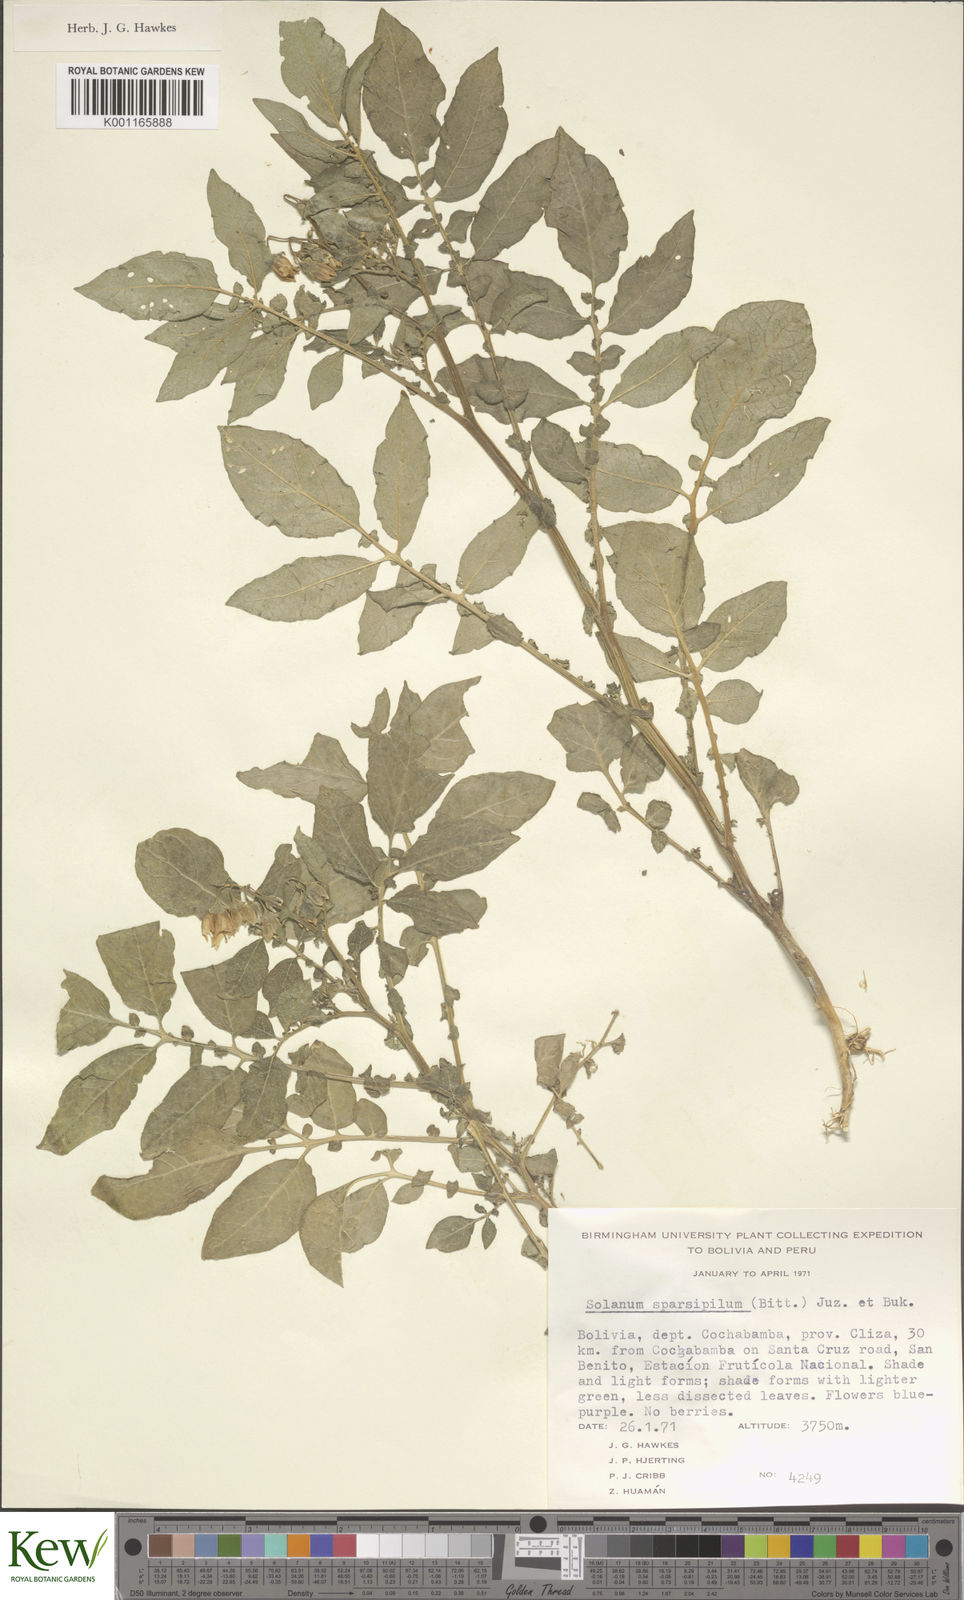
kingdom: Plantae
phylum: Tracheophyta
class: Magnoliopsida
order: Solanales
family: Solanaceae
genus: Solanum
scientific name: Solanum brevicaule
